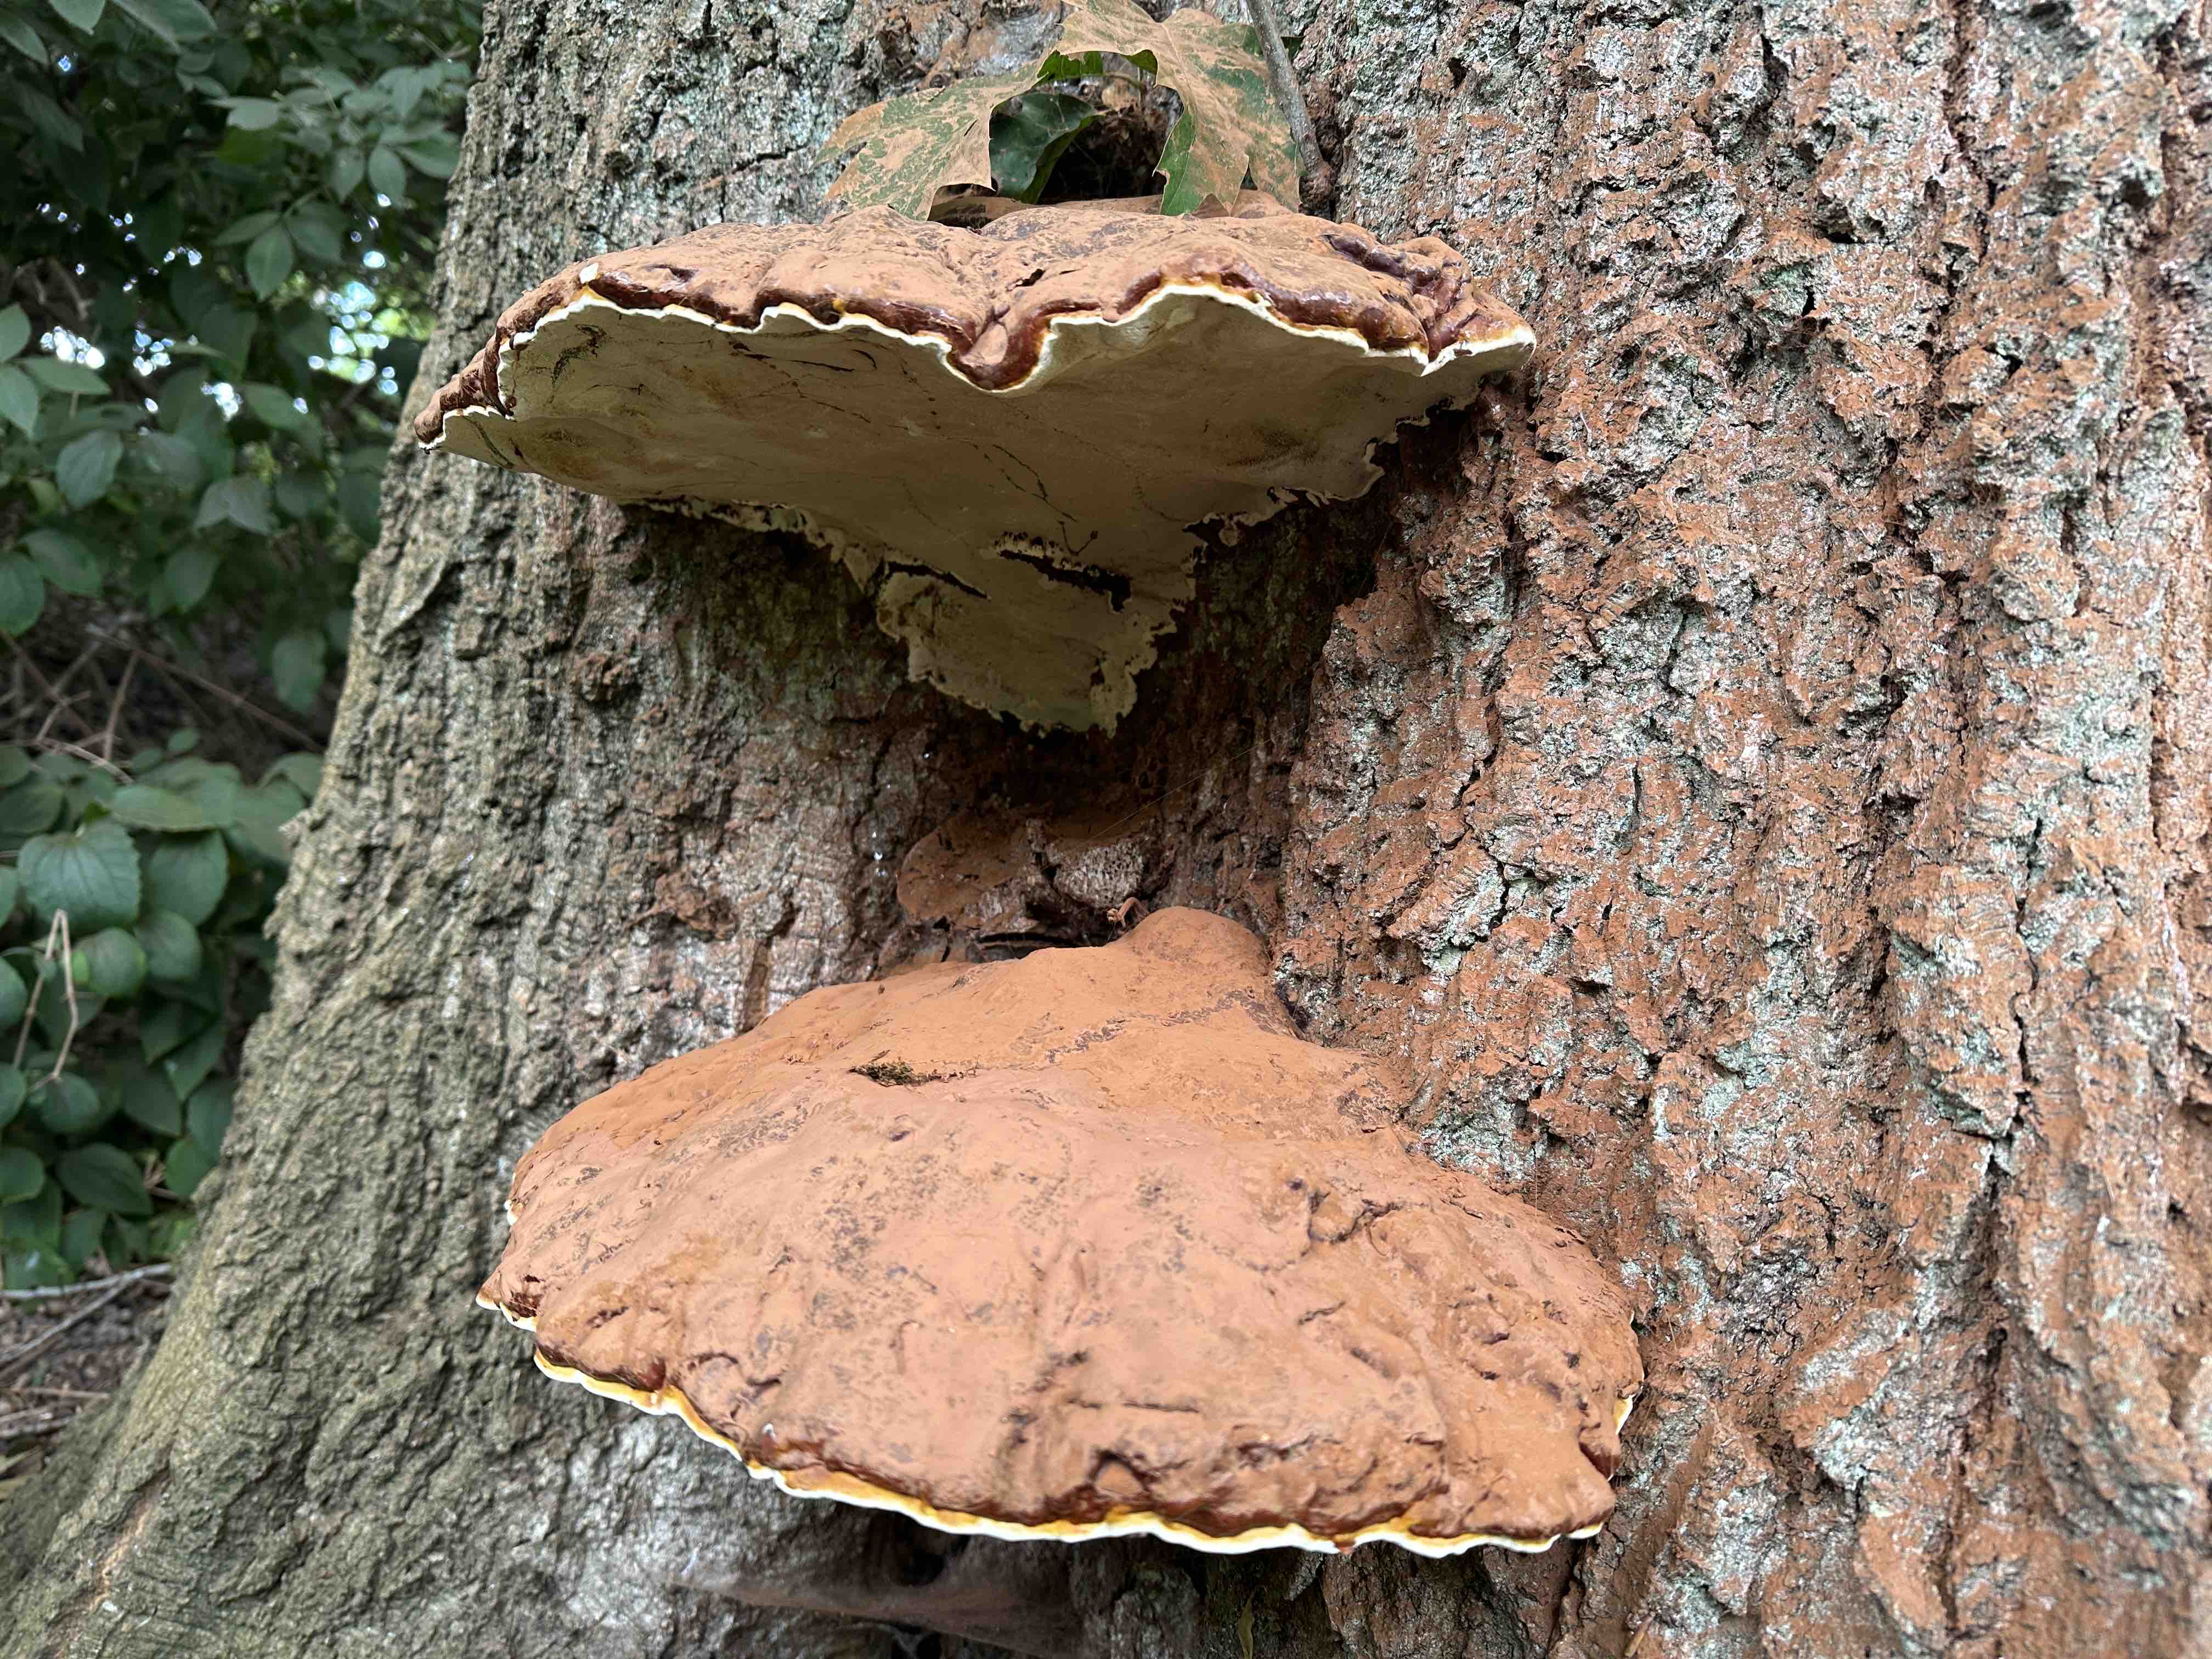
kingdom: Fungi
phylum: Basidiomycota
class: Agaricomycetes
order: Polyporales
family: Polyporaceae
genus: Ganoderma
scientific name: Ganoderma resinaceum
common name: gyldenbrun lakporesvamp
